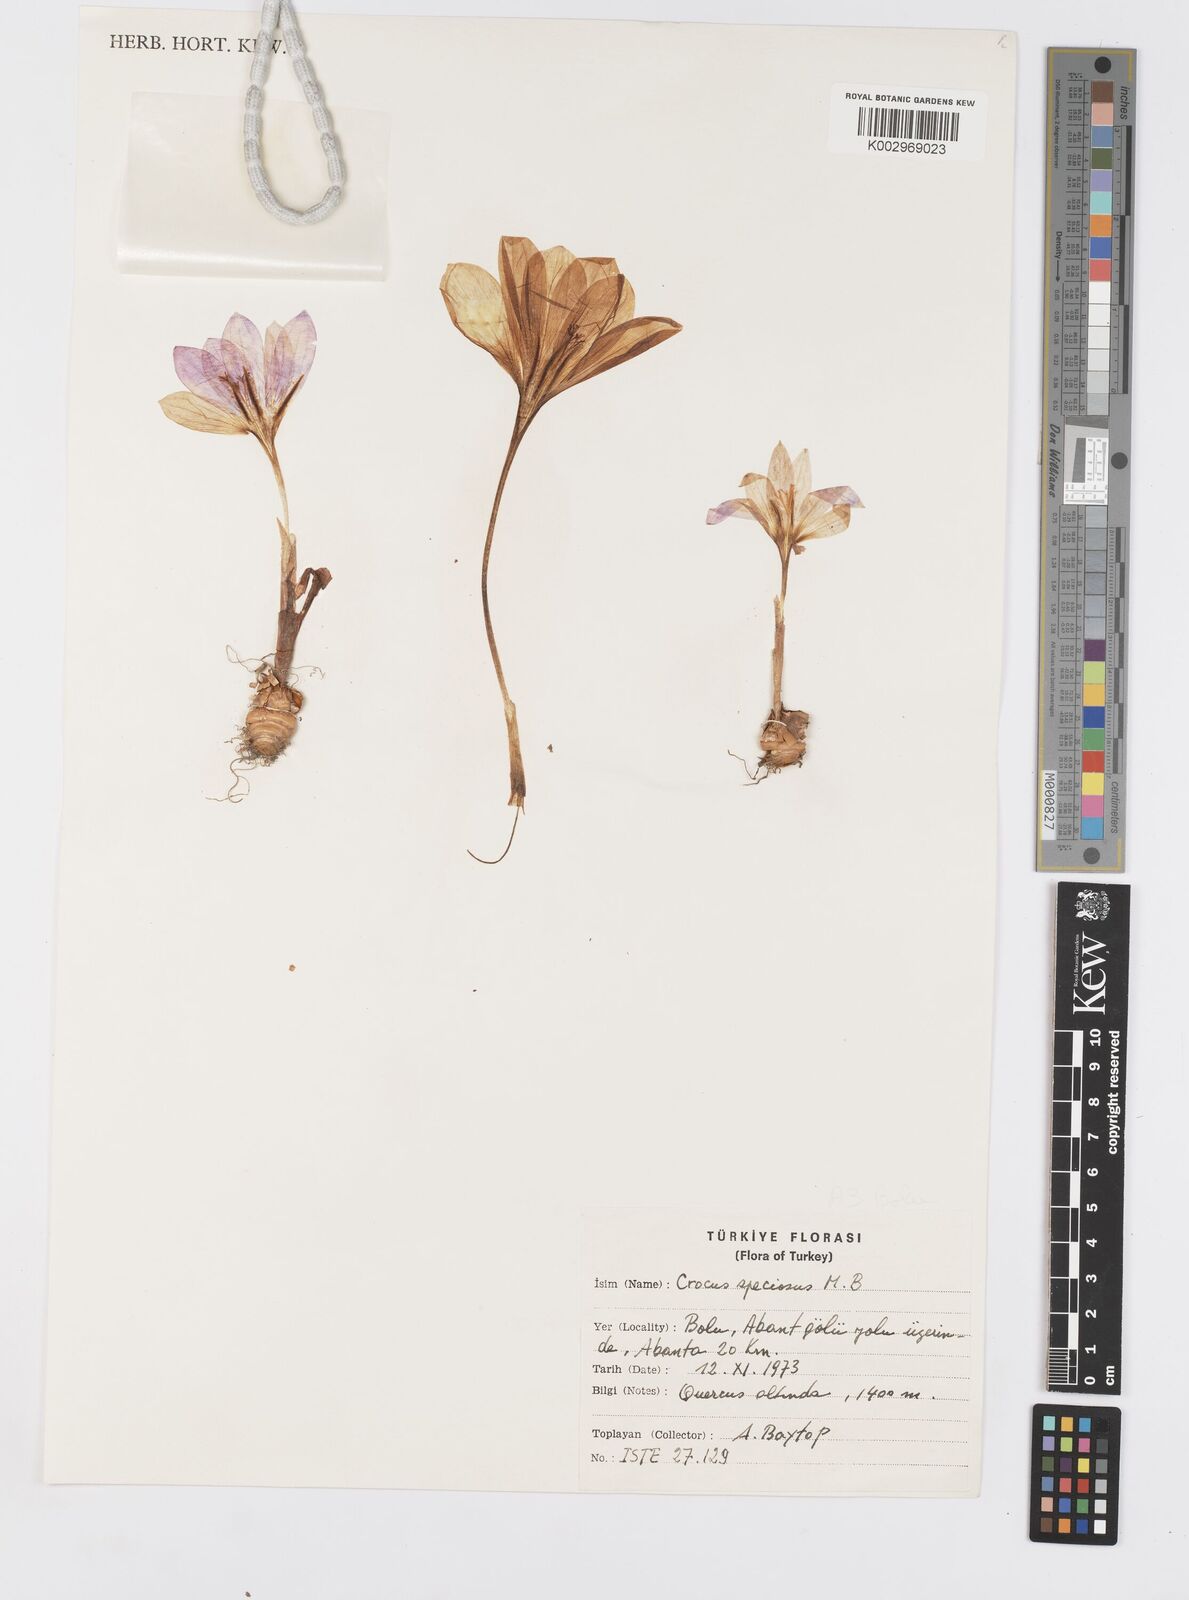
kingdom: Plantae
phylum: Tracheophyta
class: Liliopsida
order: Asparagales
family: Iridaceae
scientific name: Iridaceae
